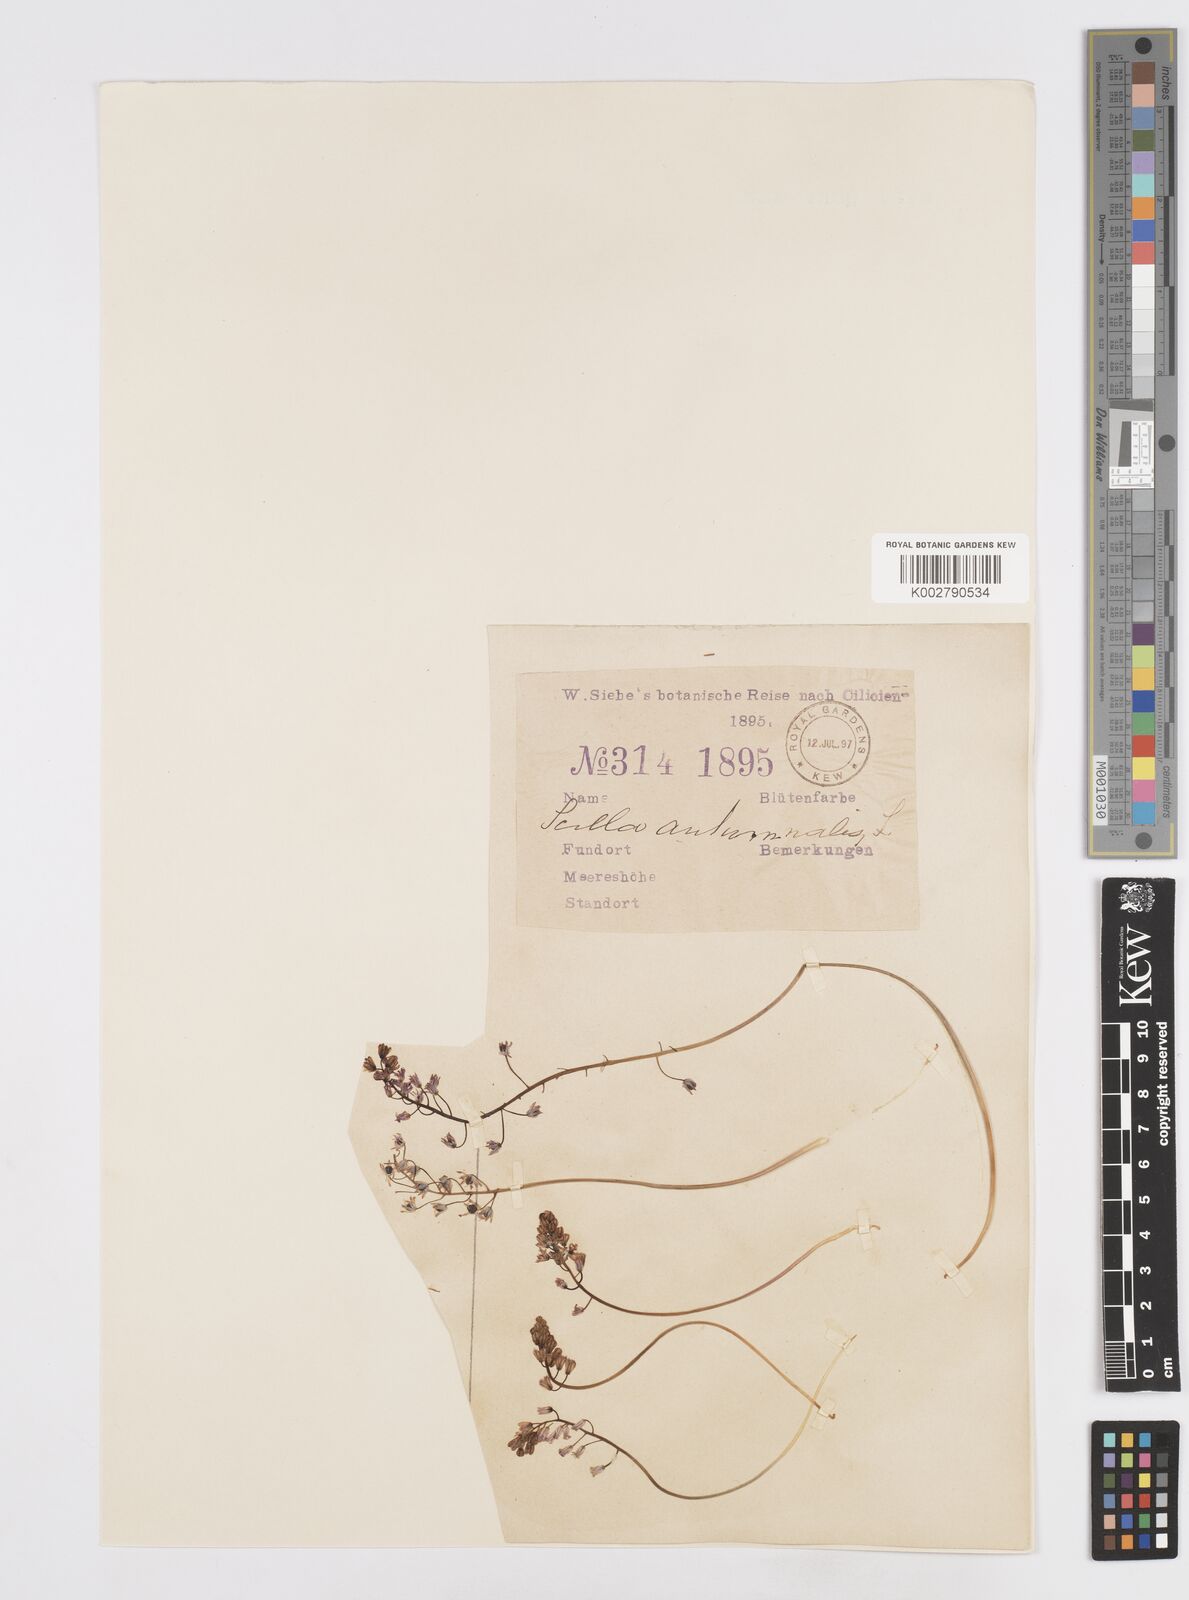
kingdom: Plantae
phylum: Tracheophyta
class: Liliopsida
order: Asparagales
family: Asparagaceae
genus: Prospero
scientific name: Prospero autumnale
